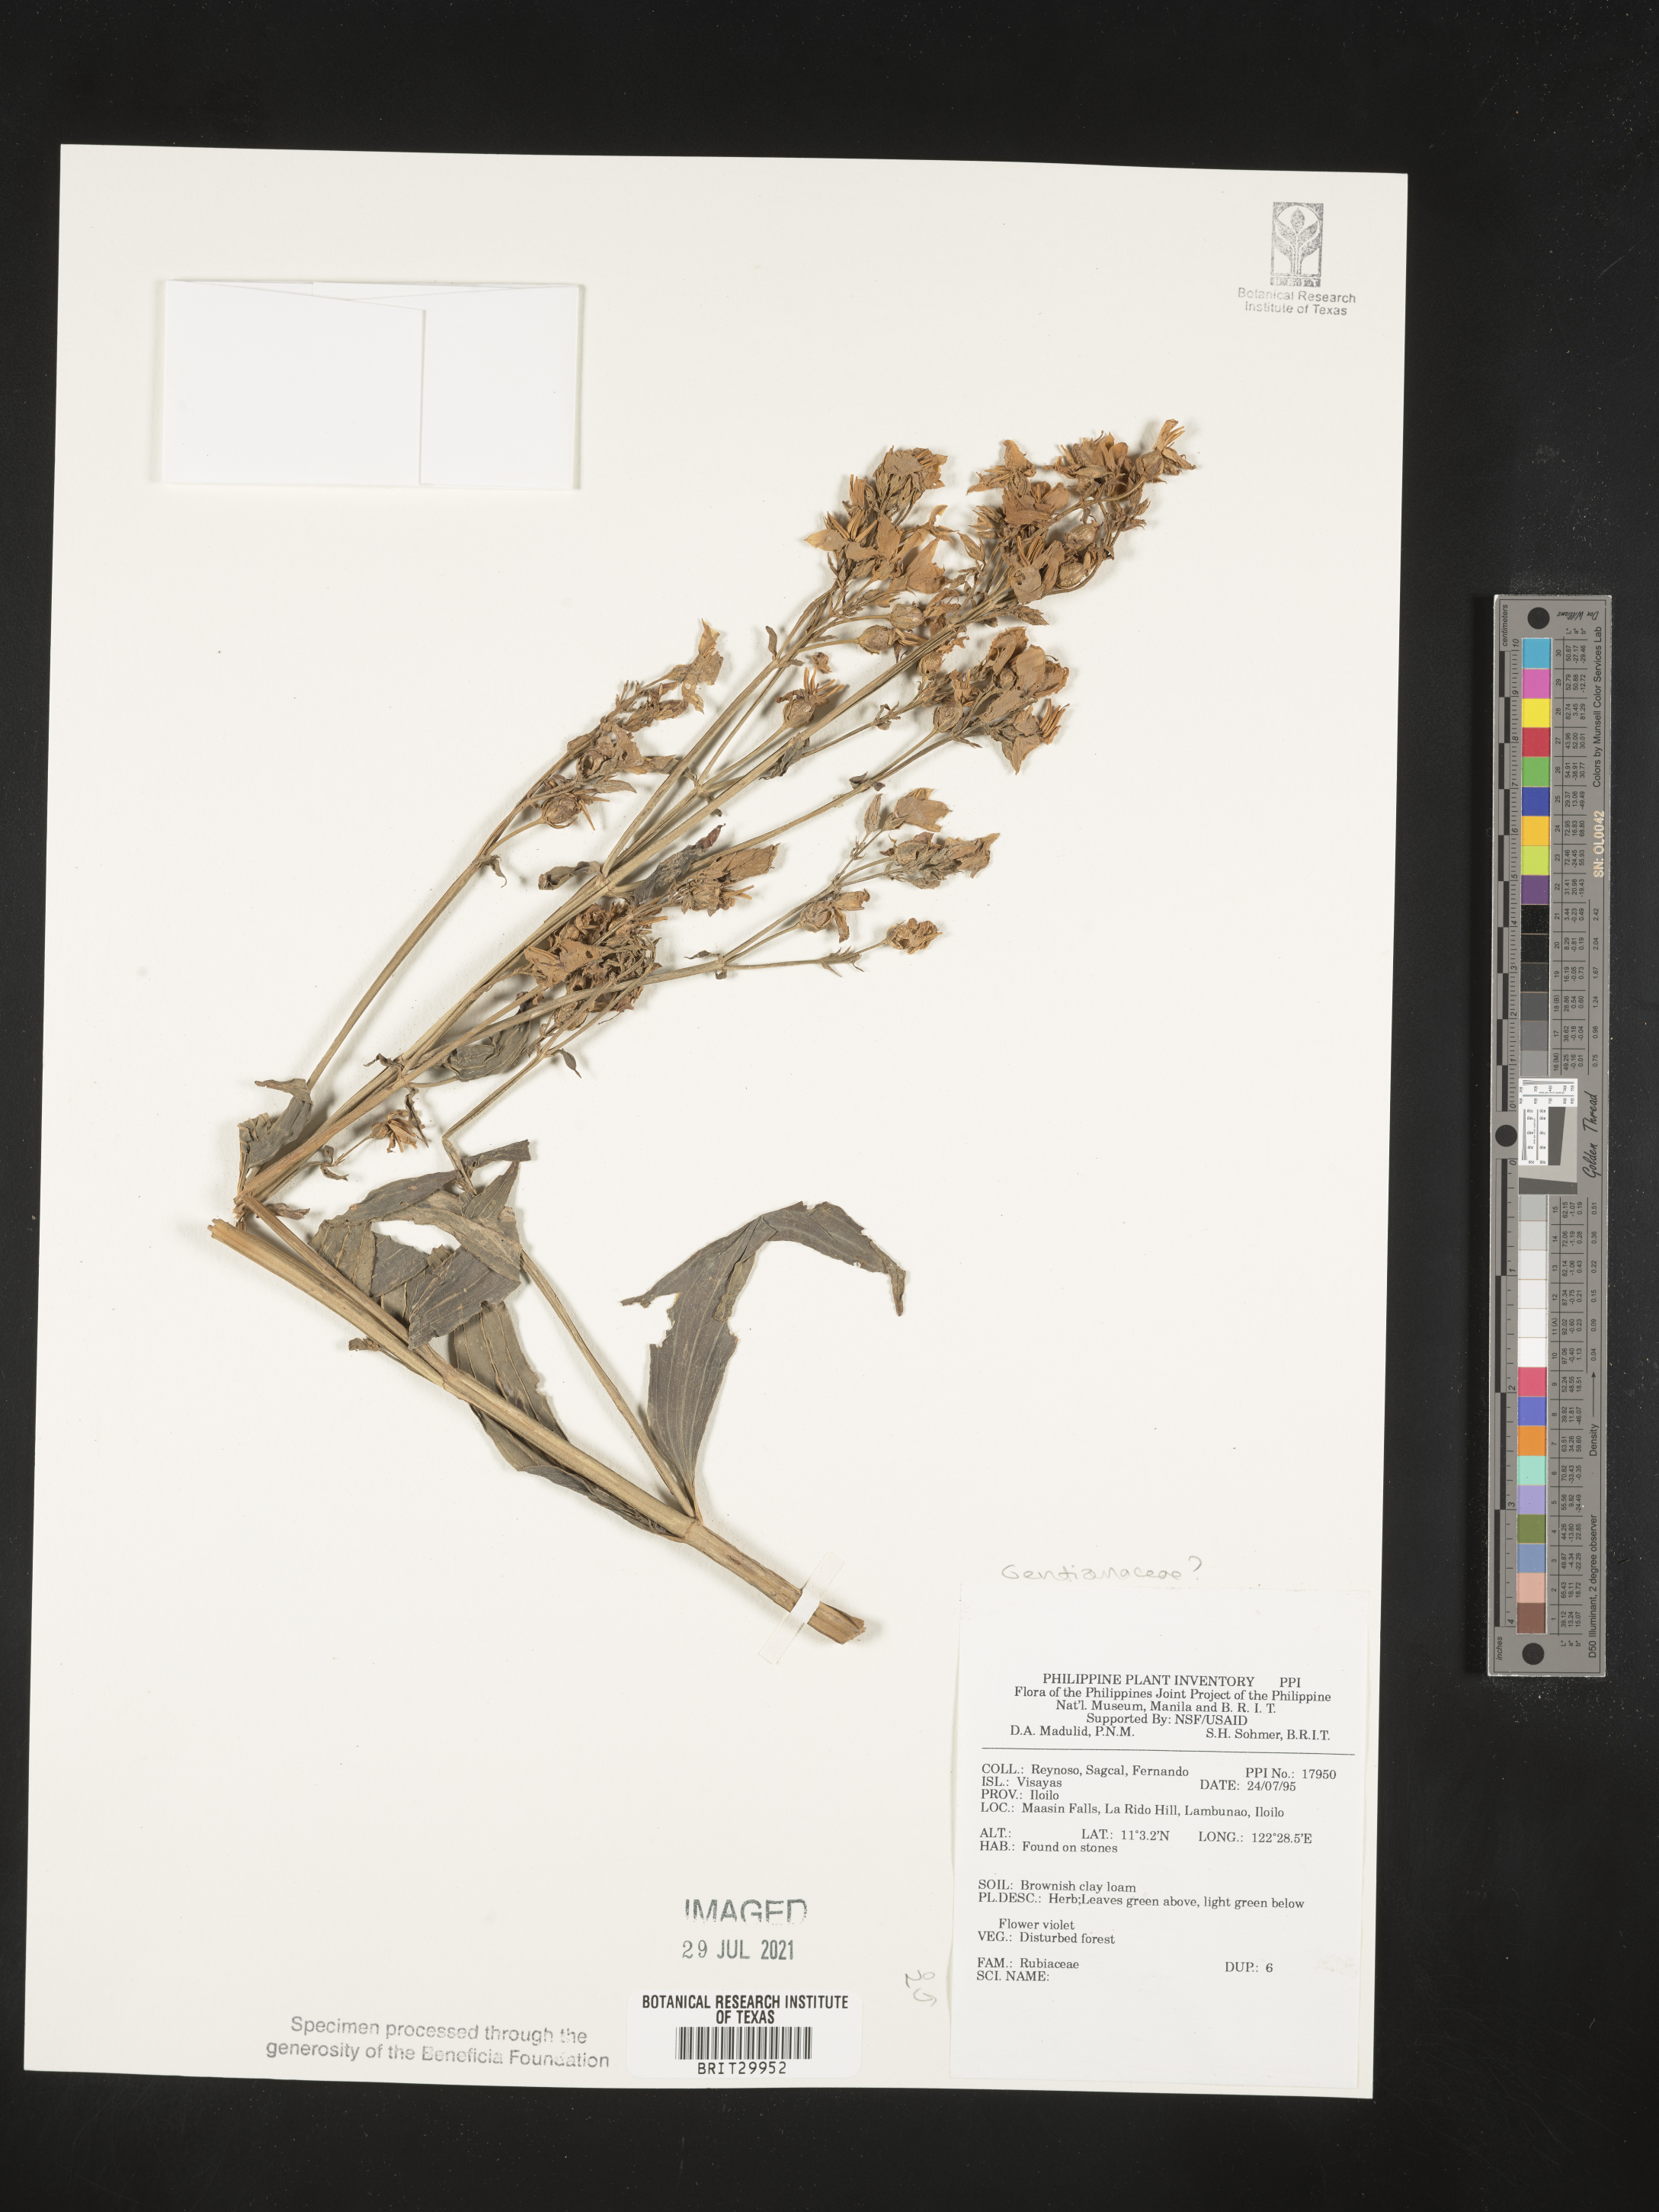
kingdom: Plantae
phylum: Tracheophyta
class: Magnoliopsida
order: Gentianales
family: Gentianaceae
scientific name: Gentianaceae
